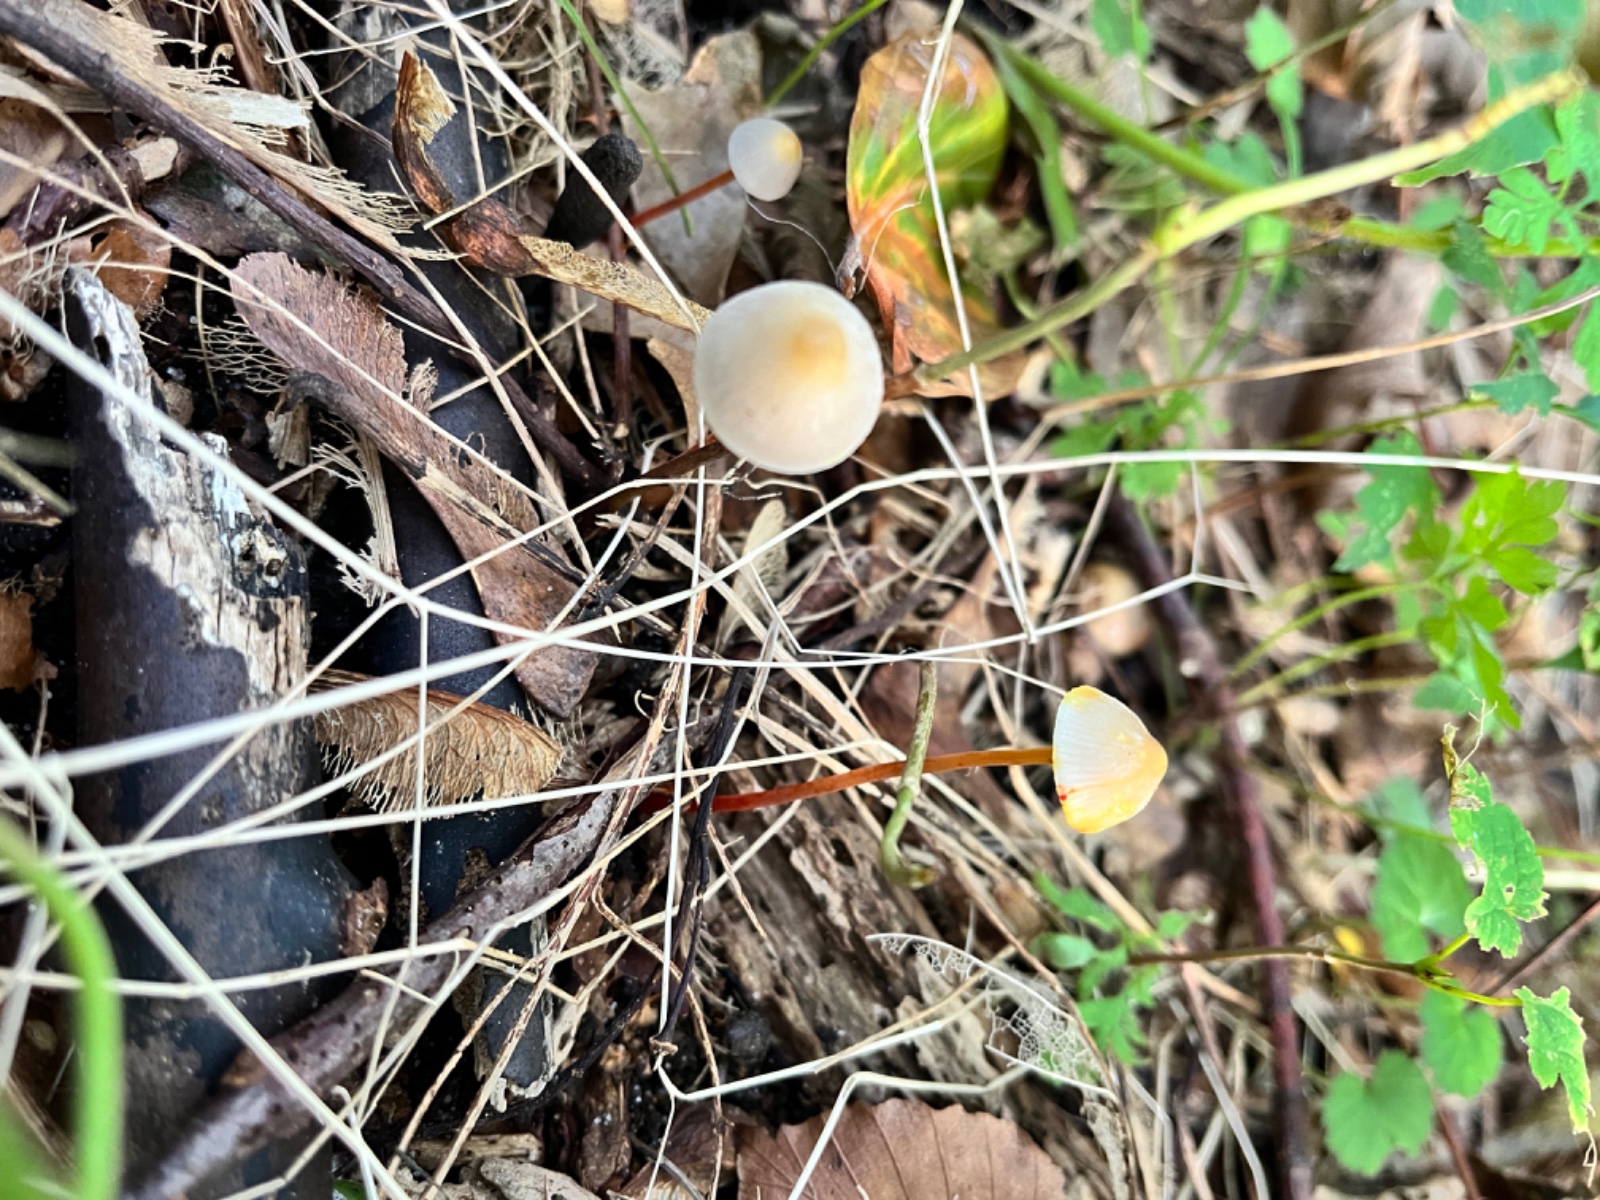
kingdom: Fungi
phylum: Basidiomycota
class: Agaricomycetes
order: Agaricales
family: Mycenaceae
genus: Mycena
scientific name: Mycena crocata
